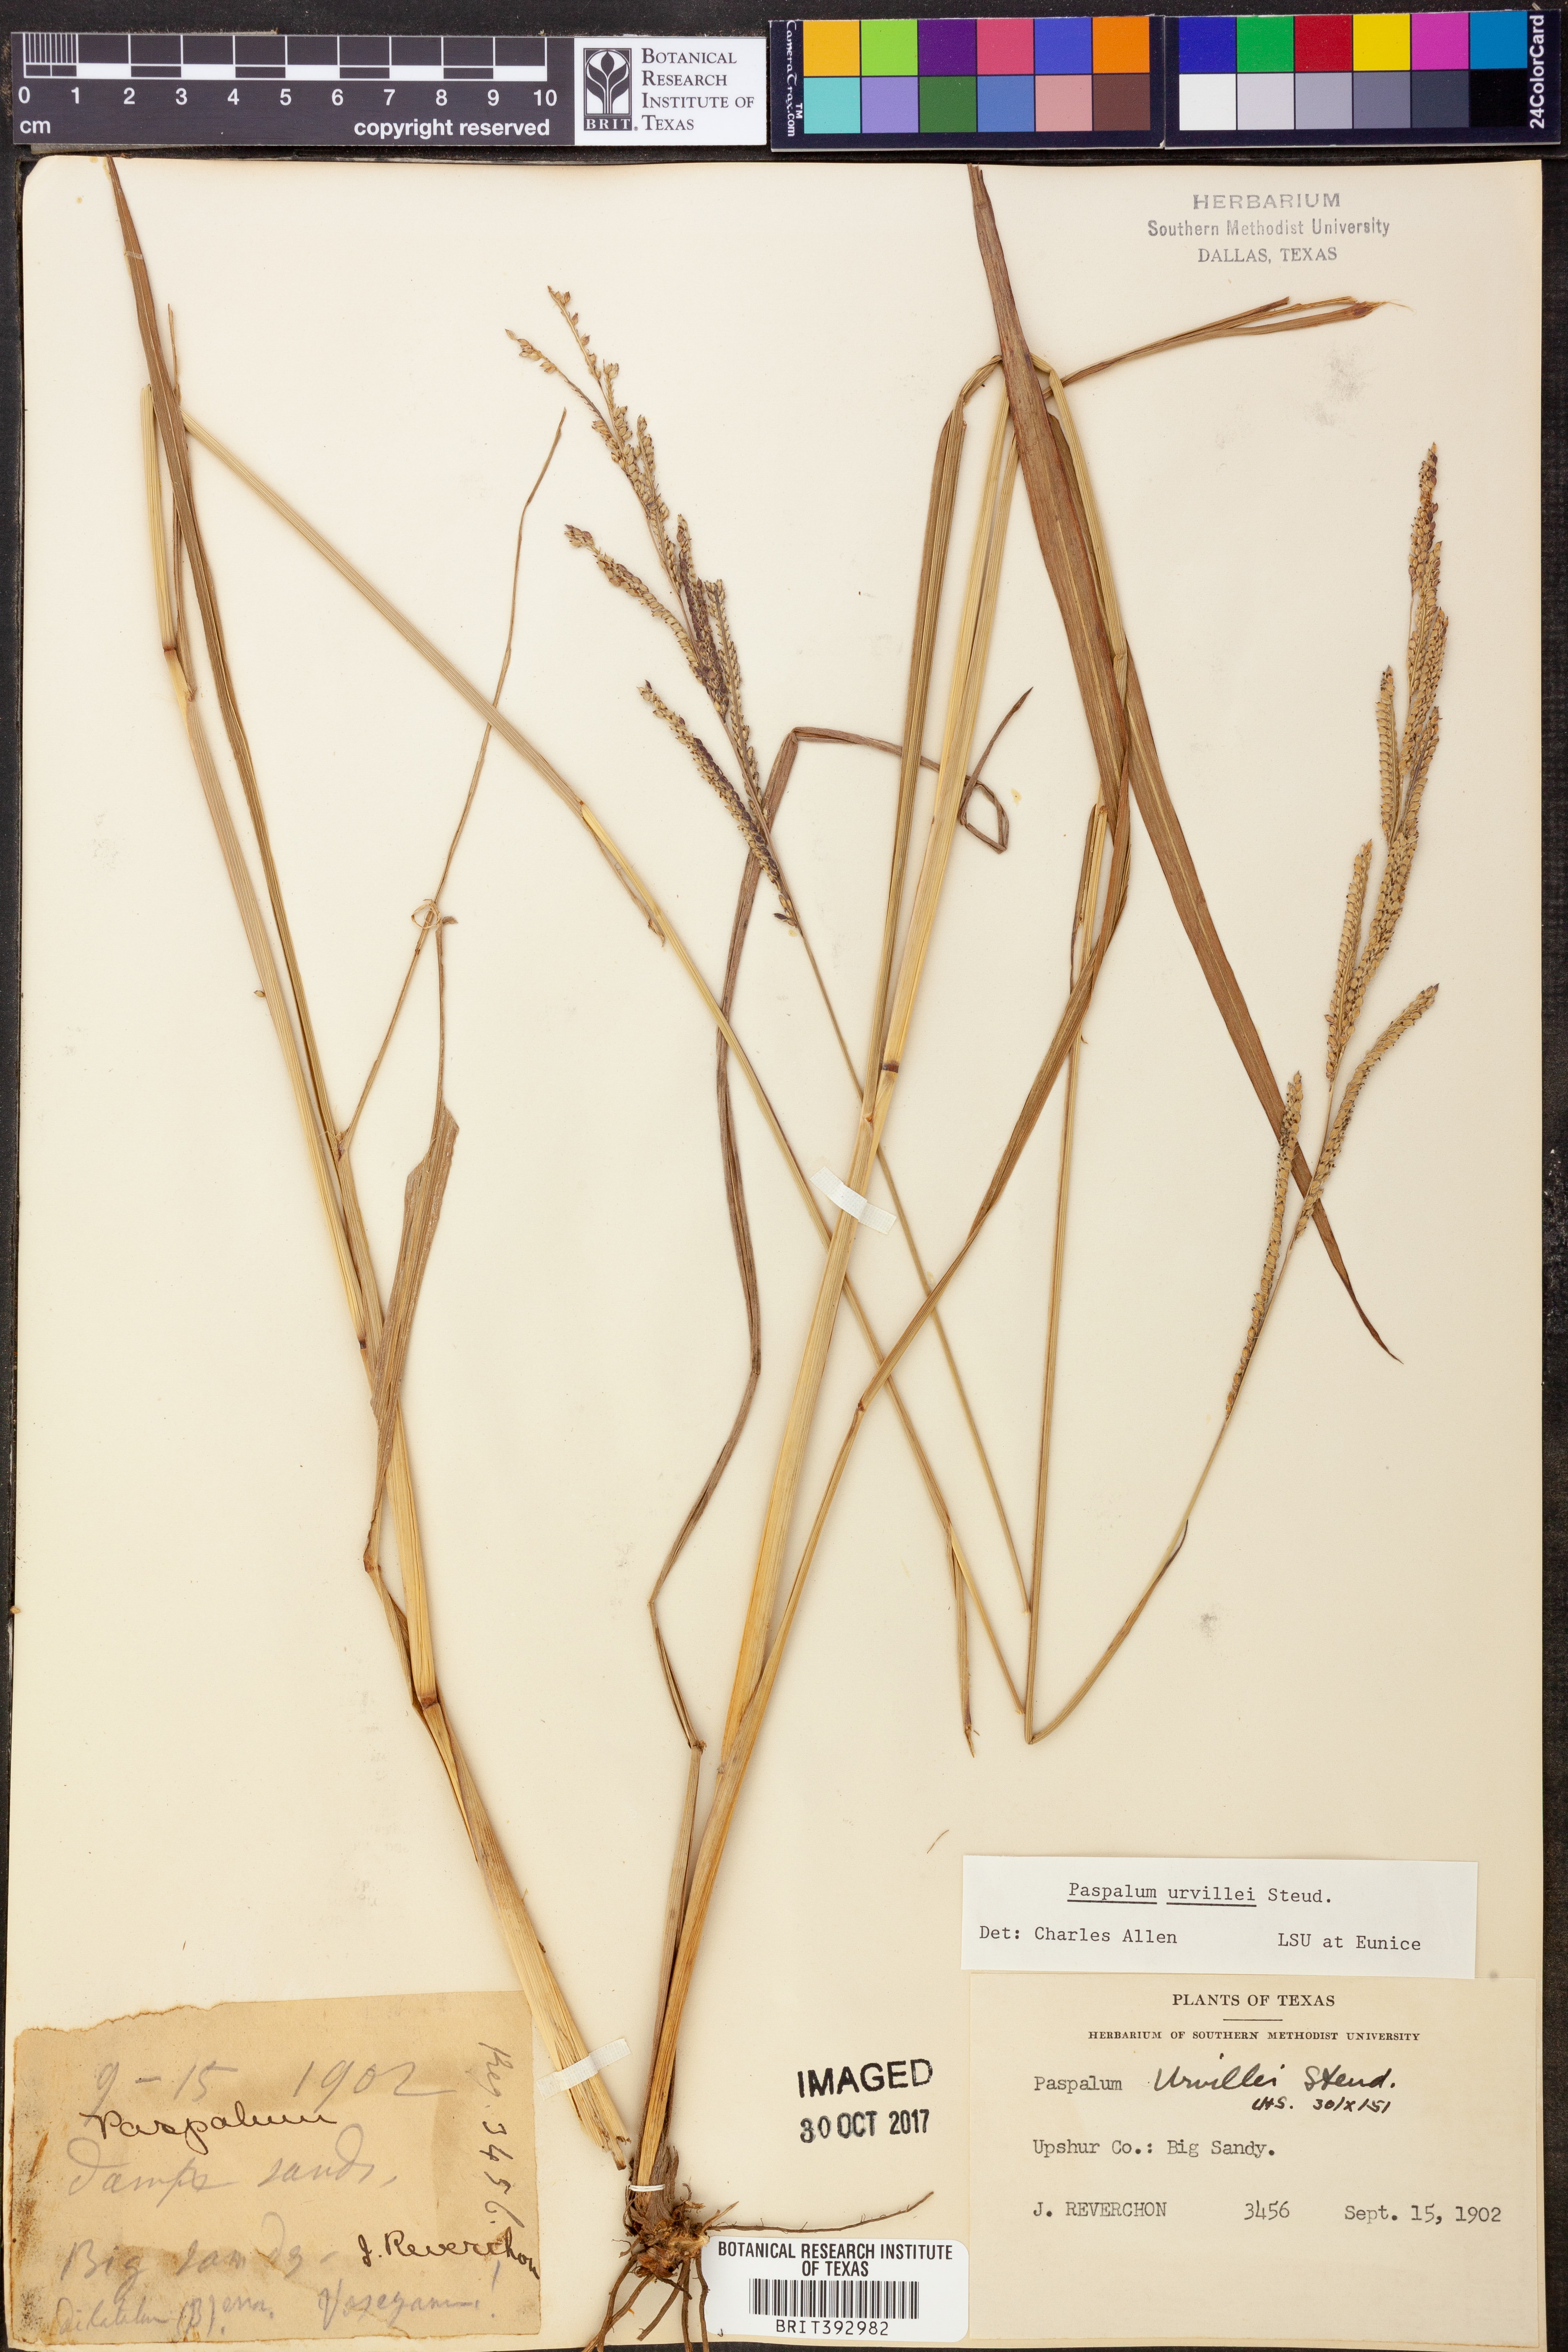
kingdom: Plantae
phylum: Tracheophyta
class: Liliopsida
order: Poales
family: Poaceae
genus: Paspalum
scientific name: Paspalum urvillei
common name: Vasey's grass
